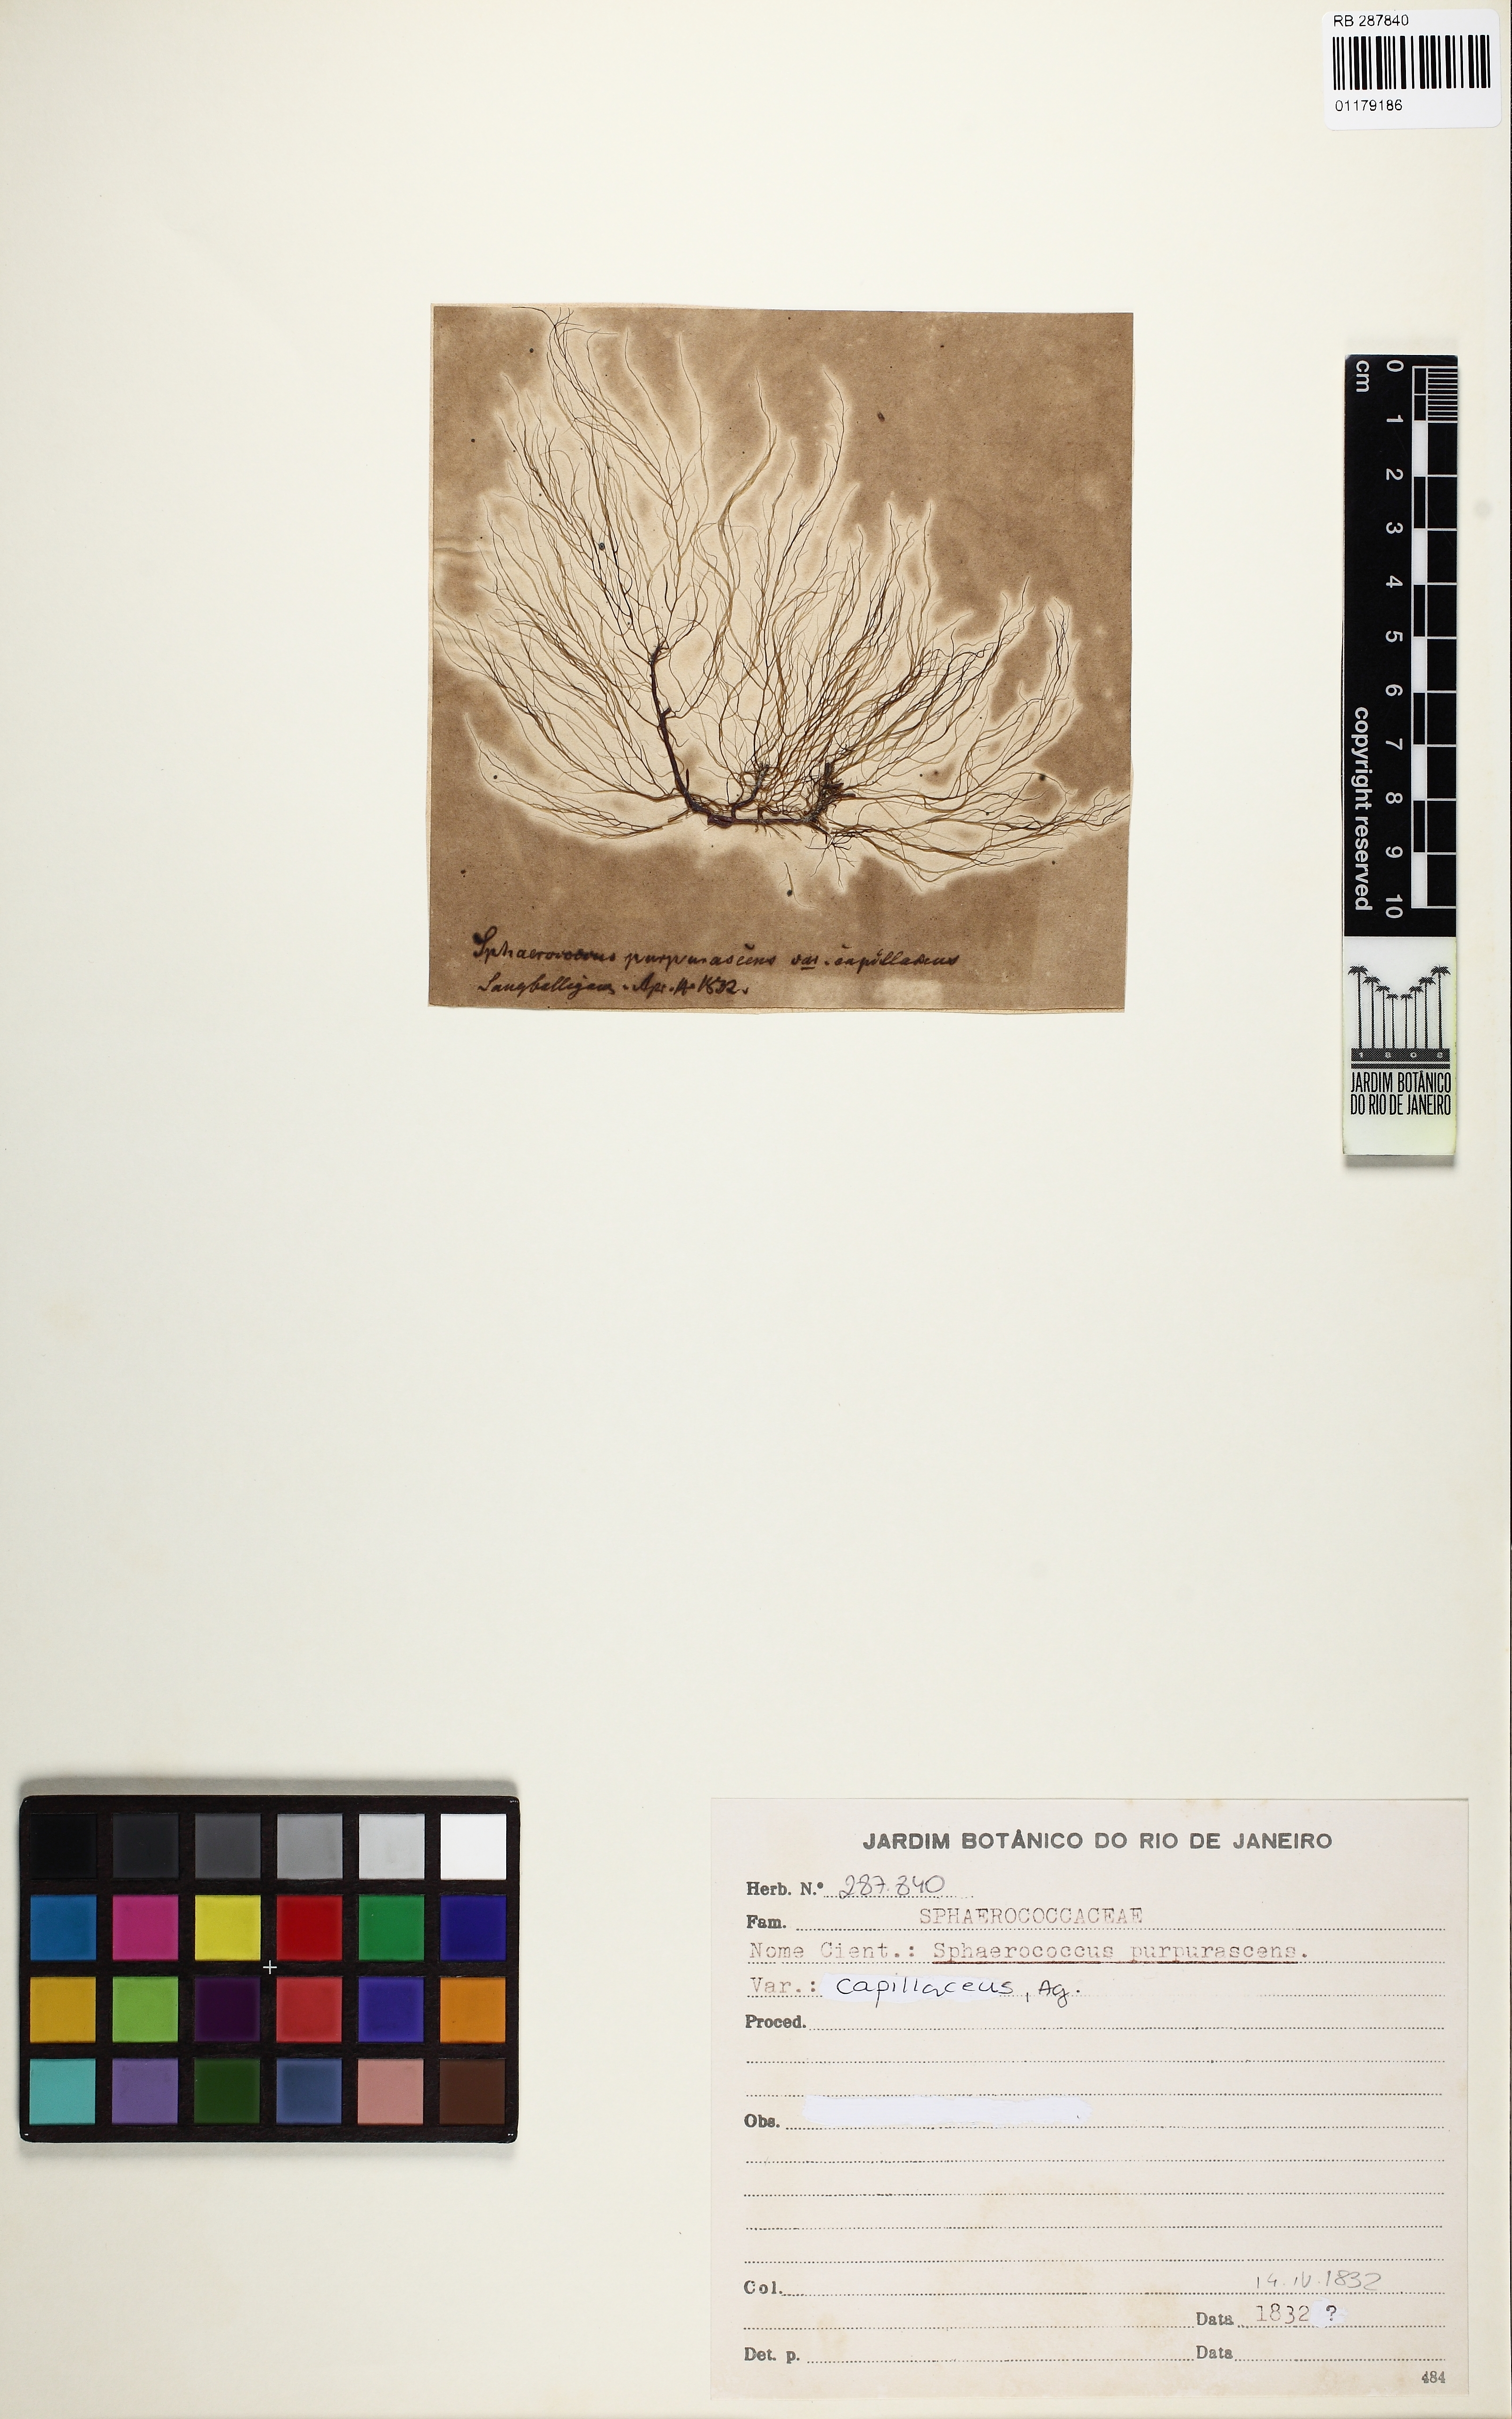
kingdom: Plantae
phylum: Rhodophyta
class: Florideophyceae
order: Gigartinales
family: Cystocloniaceae
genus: Cystoclonium
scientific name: Cystoclonium purpureum
